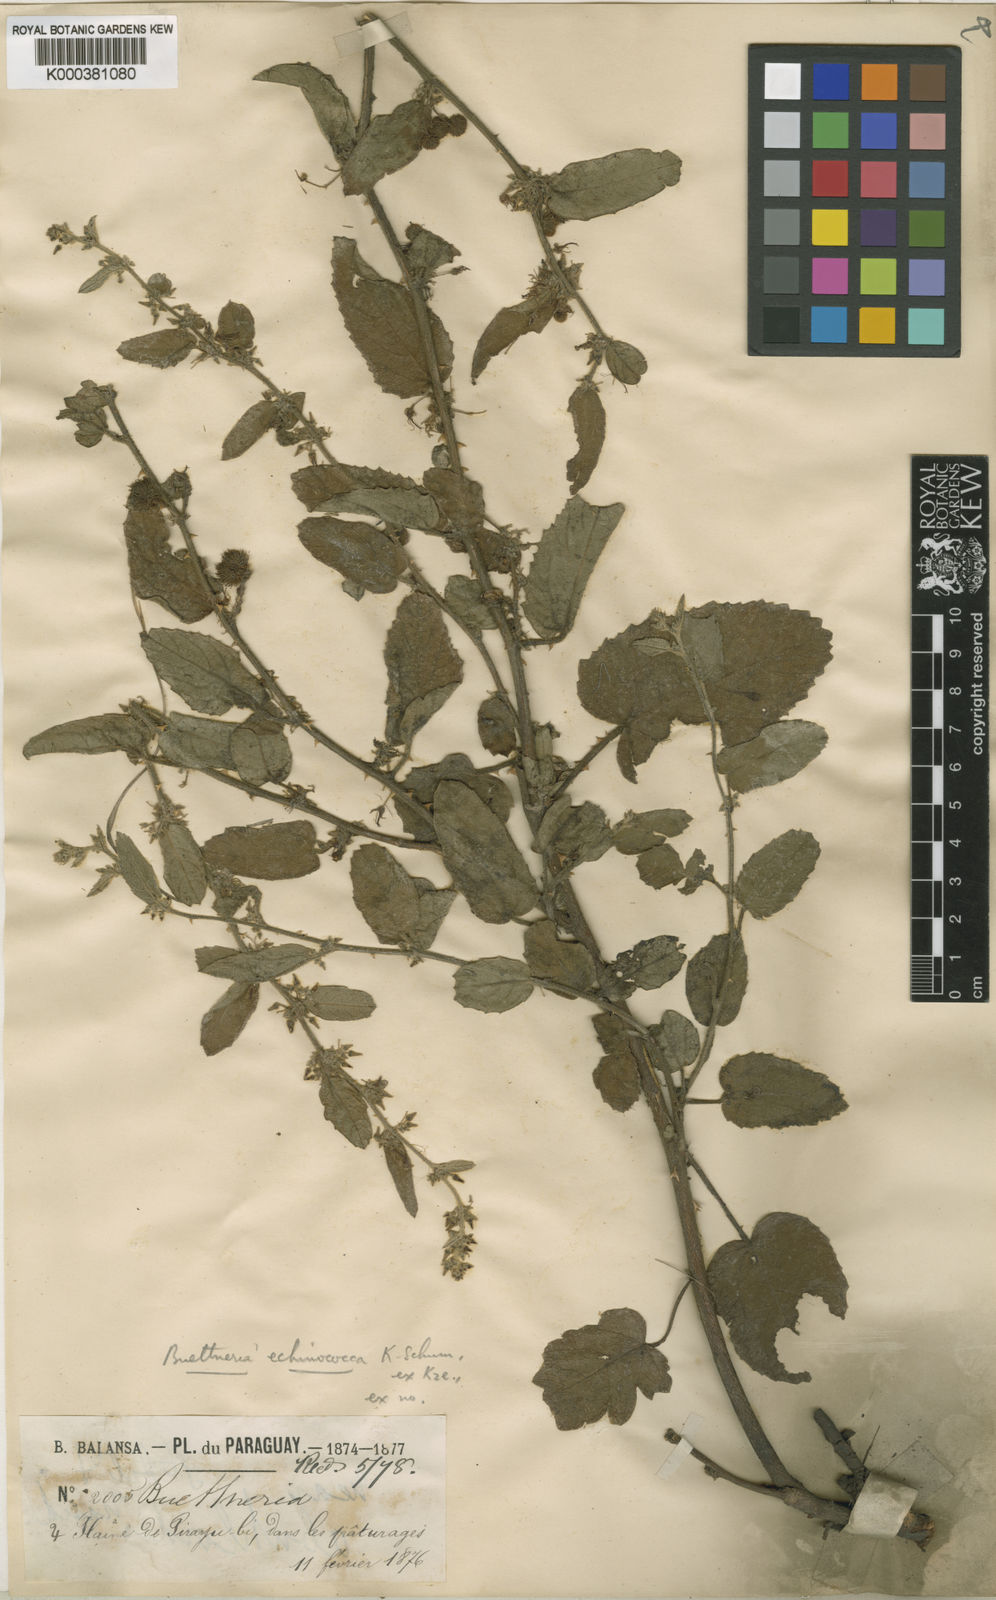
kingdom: Plantae
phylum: Tracheophyta
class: Magnoliopsida
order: Malvales
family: Malvaceae
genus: Byttneria
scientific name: Byttneria dentata
